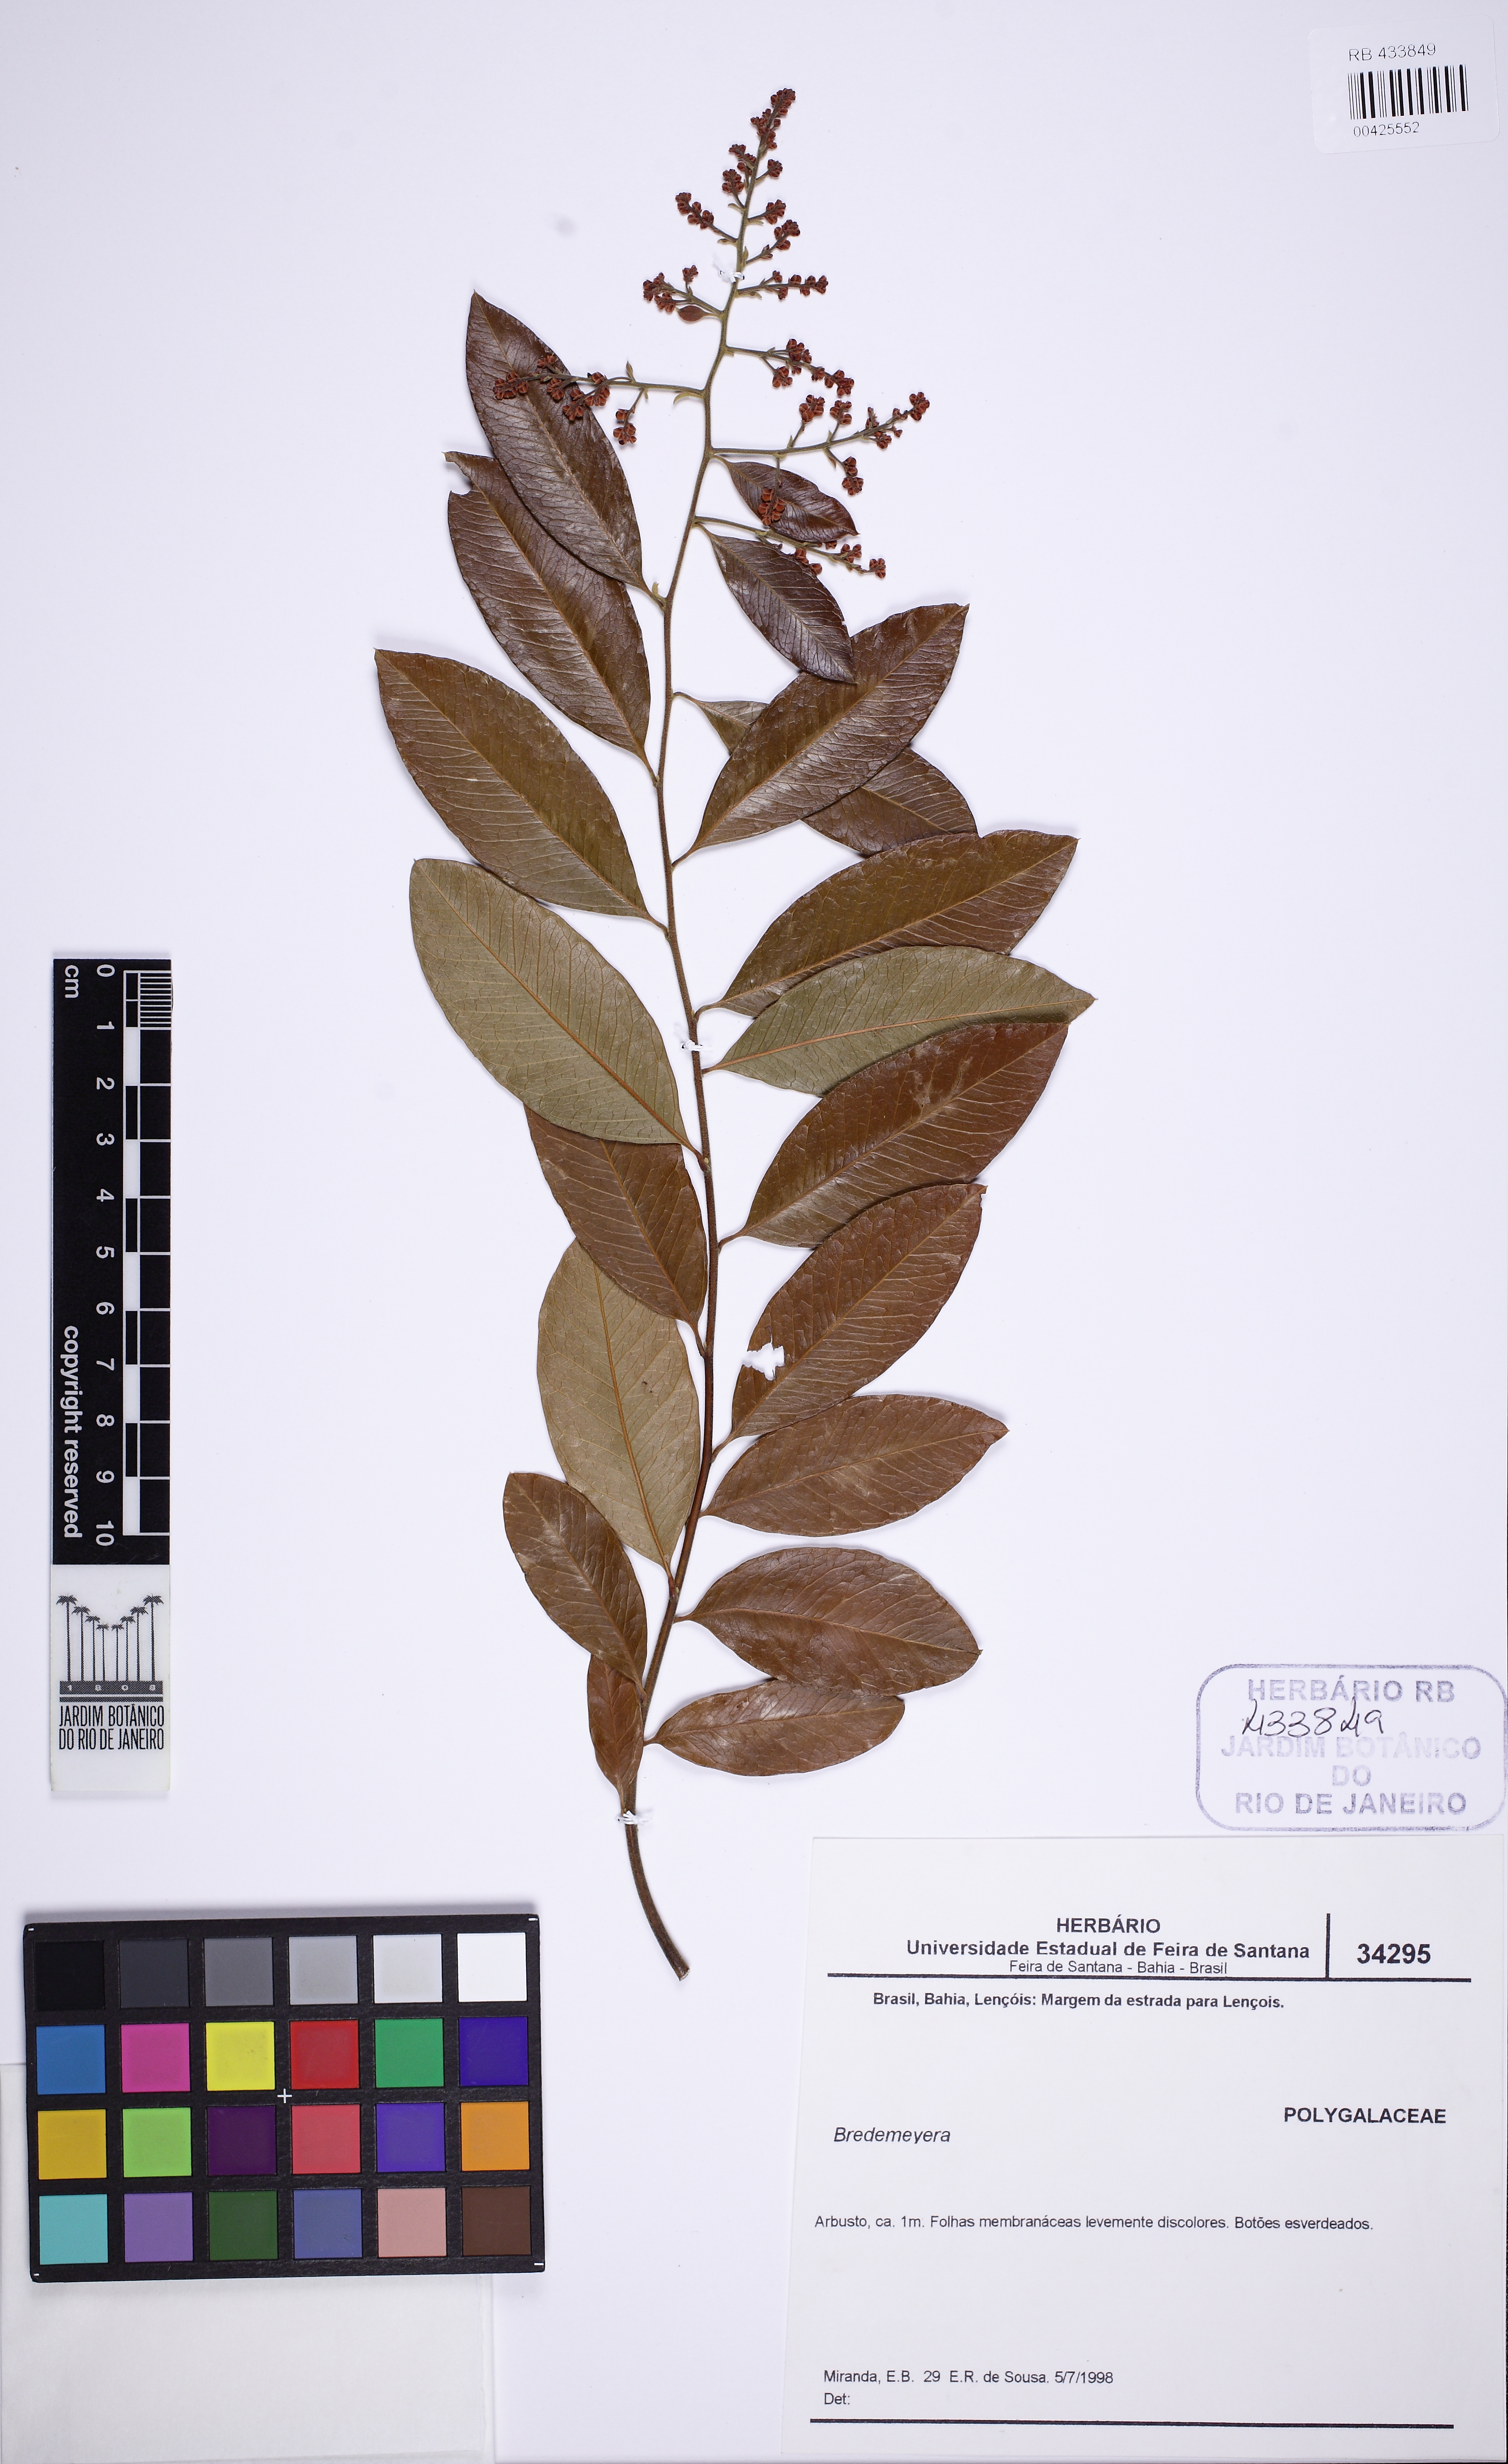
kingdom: Plantae
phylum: Tracheophyta
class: Magnoliopsida
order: Fabales
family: Polygalaceae
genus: Bredemeyera
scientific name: Bredemeyera hebeclada
